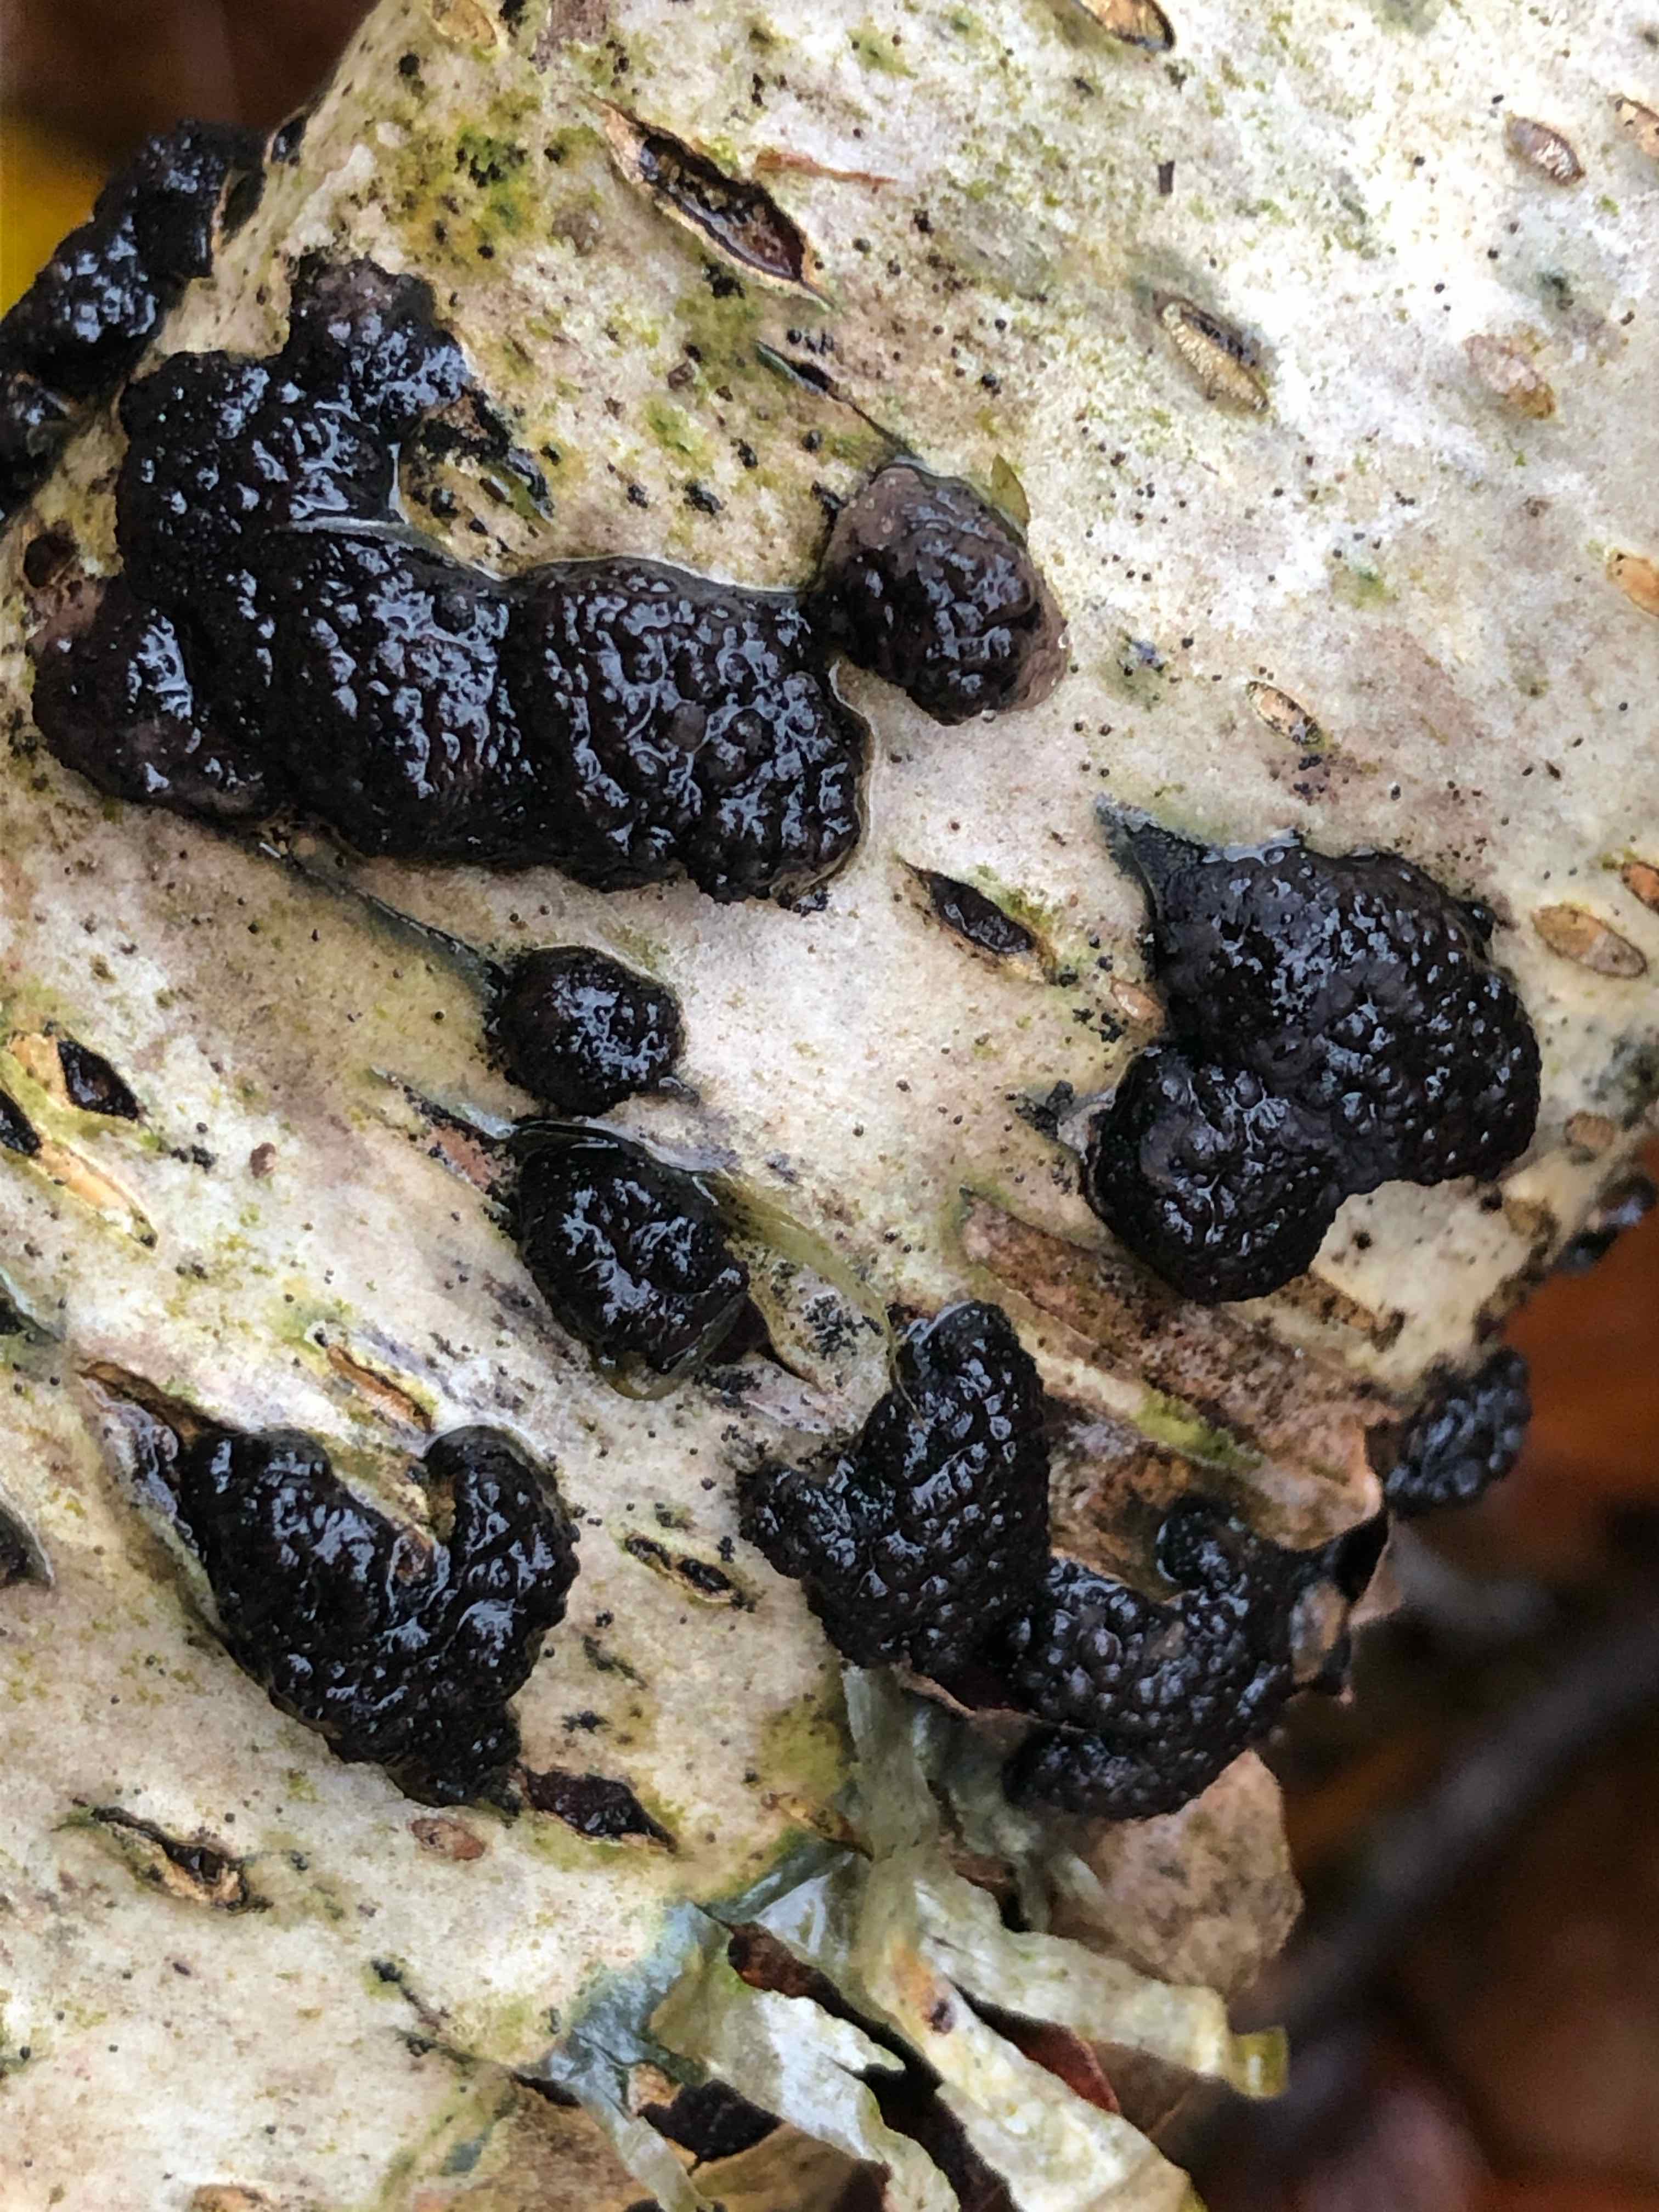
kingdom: Fungi
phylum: Ascomycota
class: Sordariomycetes
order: Xylariales
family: Hypoxylaceae
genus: Jackrogersella
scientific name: Jackrogersella multiformis
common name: foranderlig kulbær
